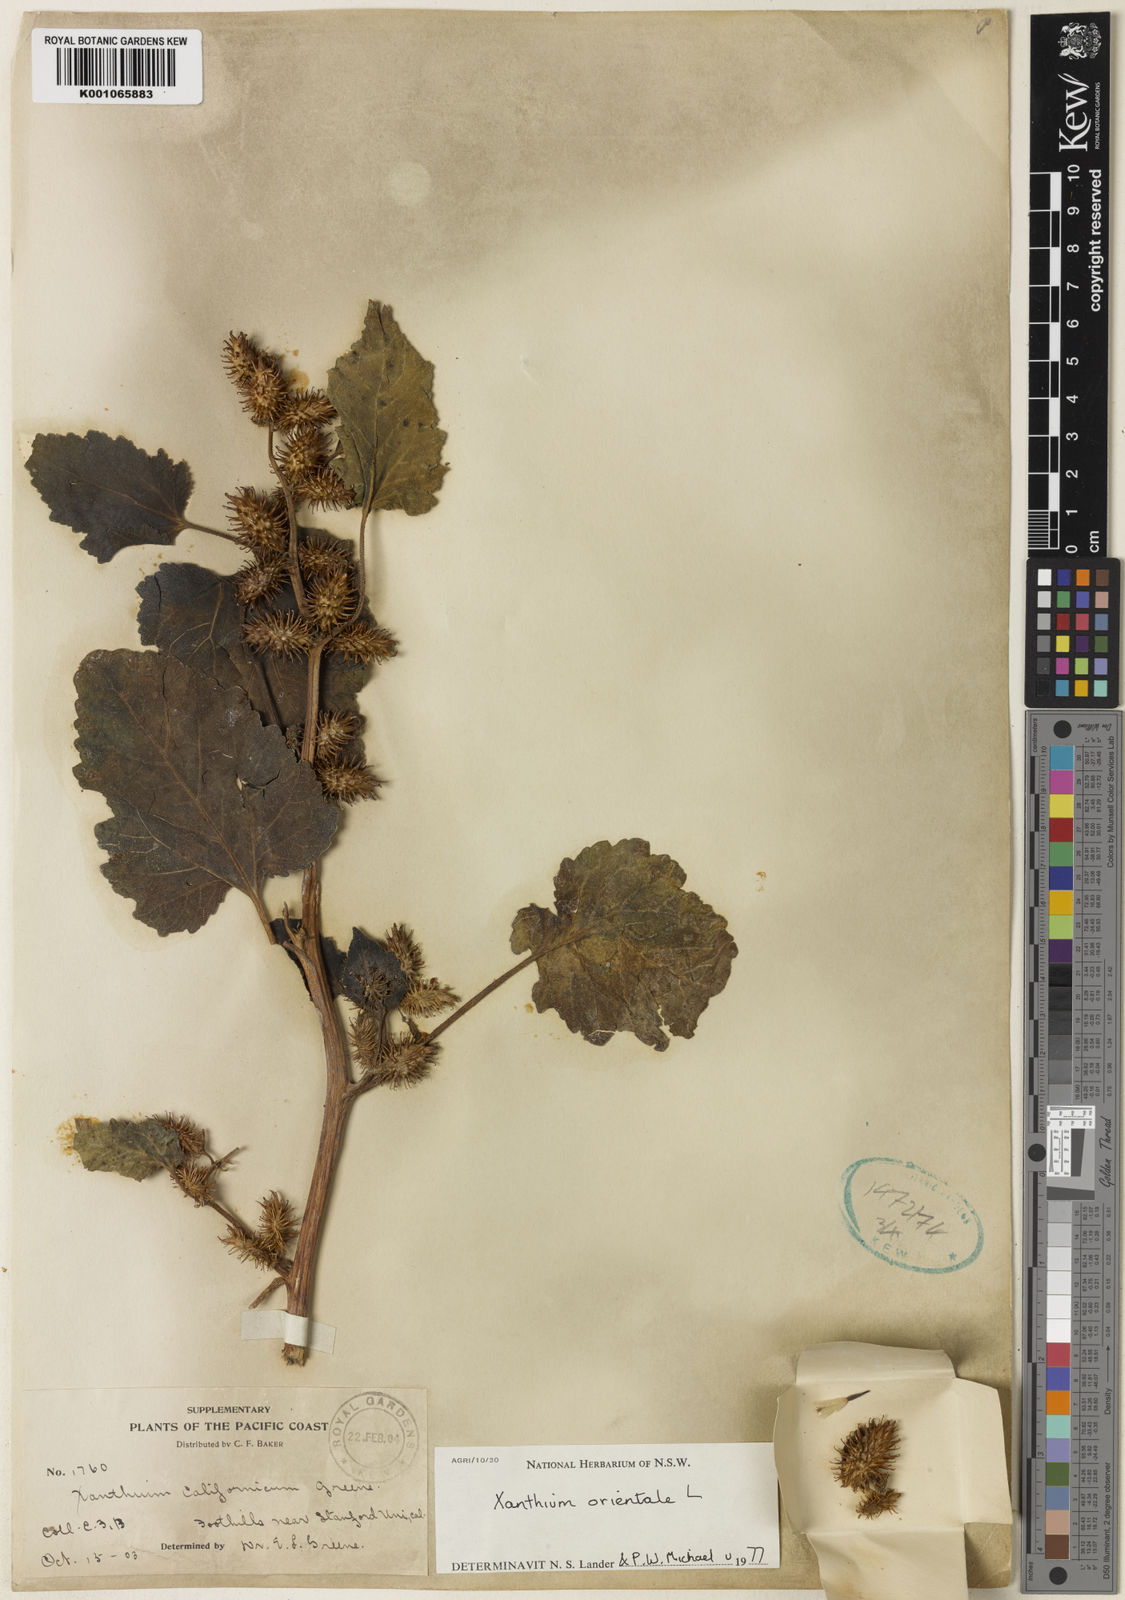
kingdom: Plantae
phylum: Tracheophyta
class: Magnoliopsida
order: Asterales
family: Asteraceae
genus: Xanthium
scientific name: Xanthium strumarium
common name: Rough cocklebur
